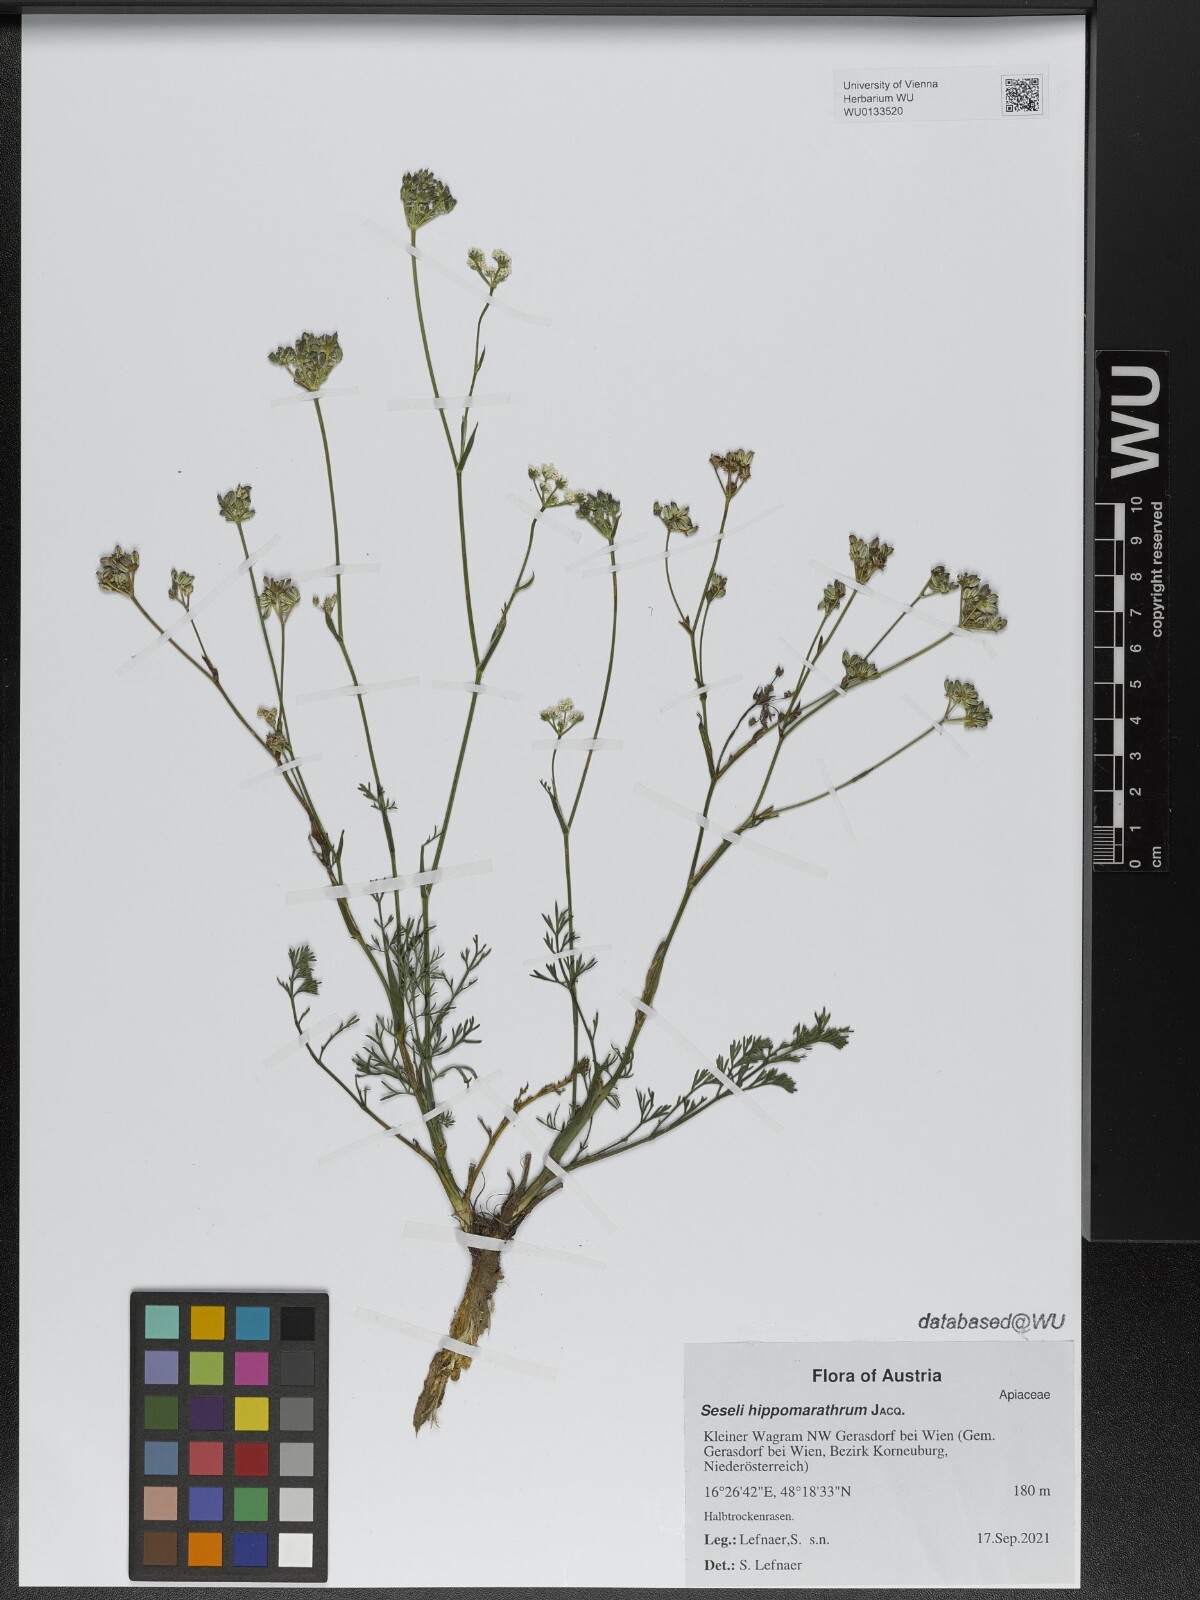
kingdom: Plantae
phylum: Tracheophyta
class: Magnoliopsida
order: Apiales
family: Apiaceae
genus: Hippomarathrum
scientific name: Hippomarathrum vulgare
